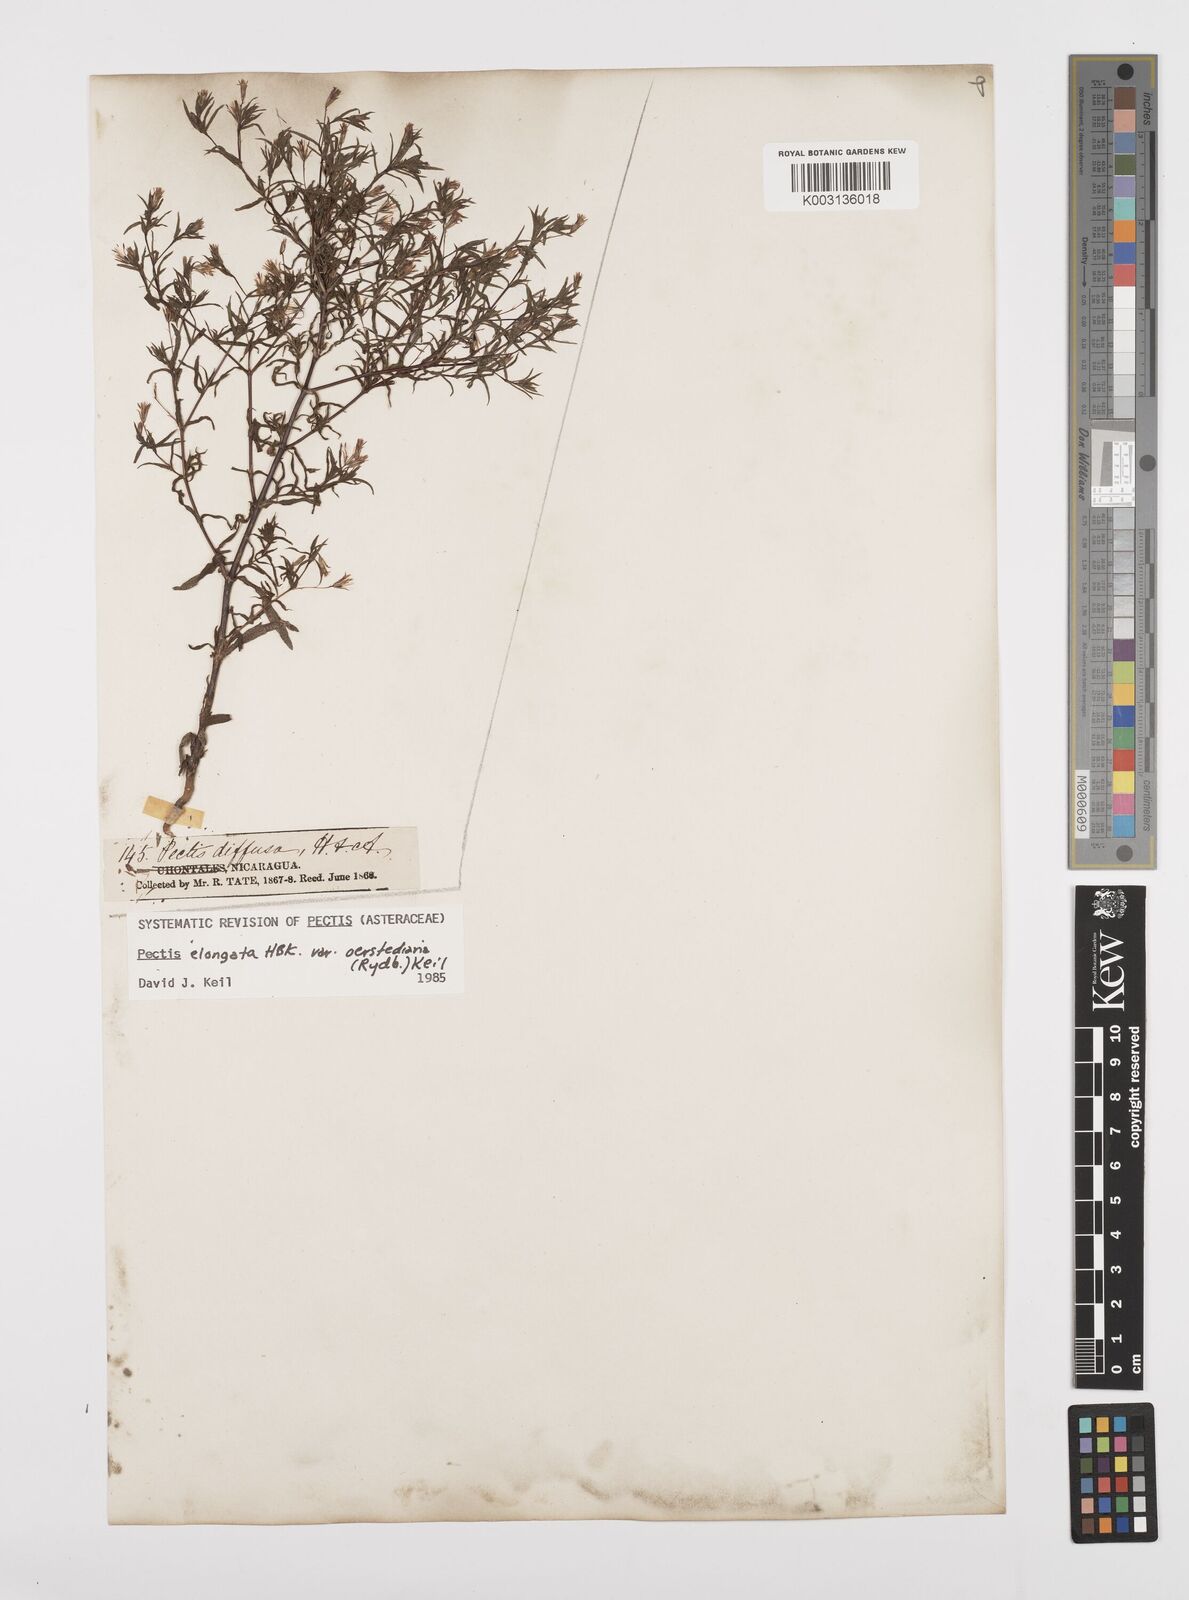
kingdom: Plantae
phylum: Tracheophyta
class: Magnoliopsida
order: Asterales
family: Asteraceae
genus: Pectis
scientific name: Pectis elongata
